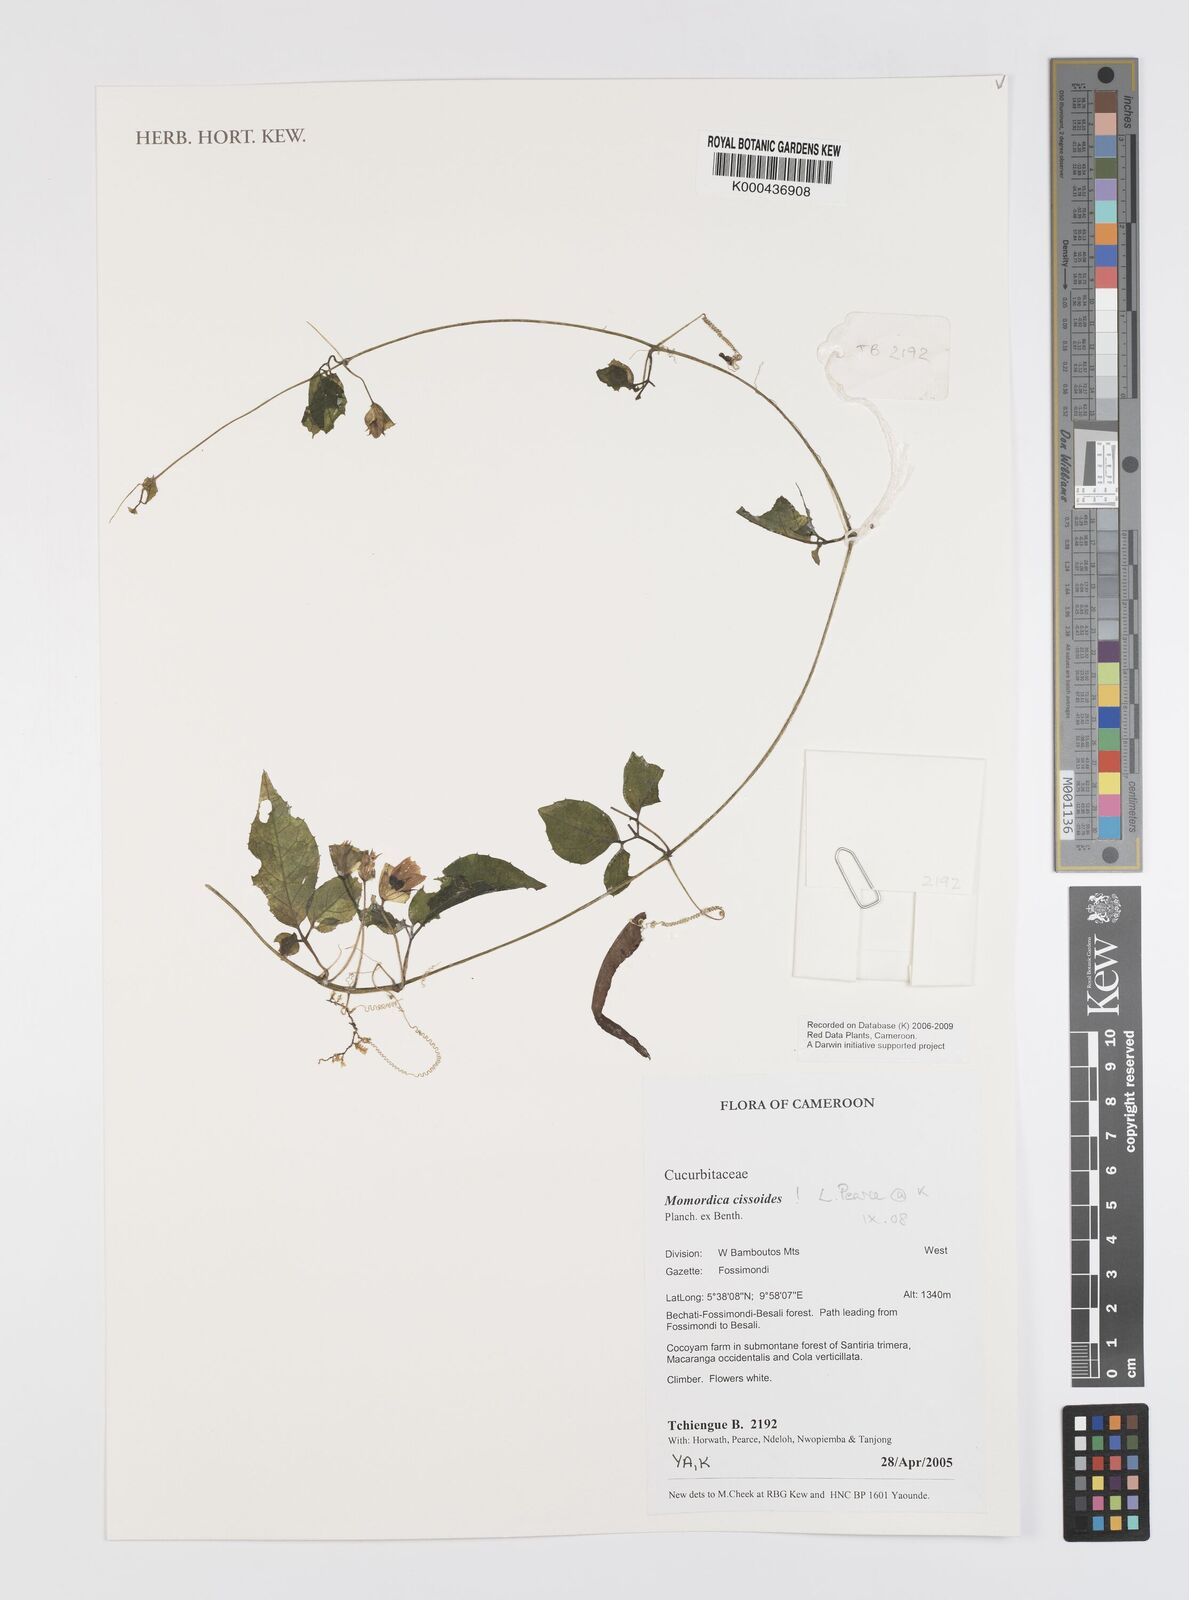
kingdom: Plantae
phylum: Tracheophyta
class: Magnoliopsida
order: Cucurbitales
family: Cucurbitaceae
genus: Momordica
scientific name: Momordica cissoides
